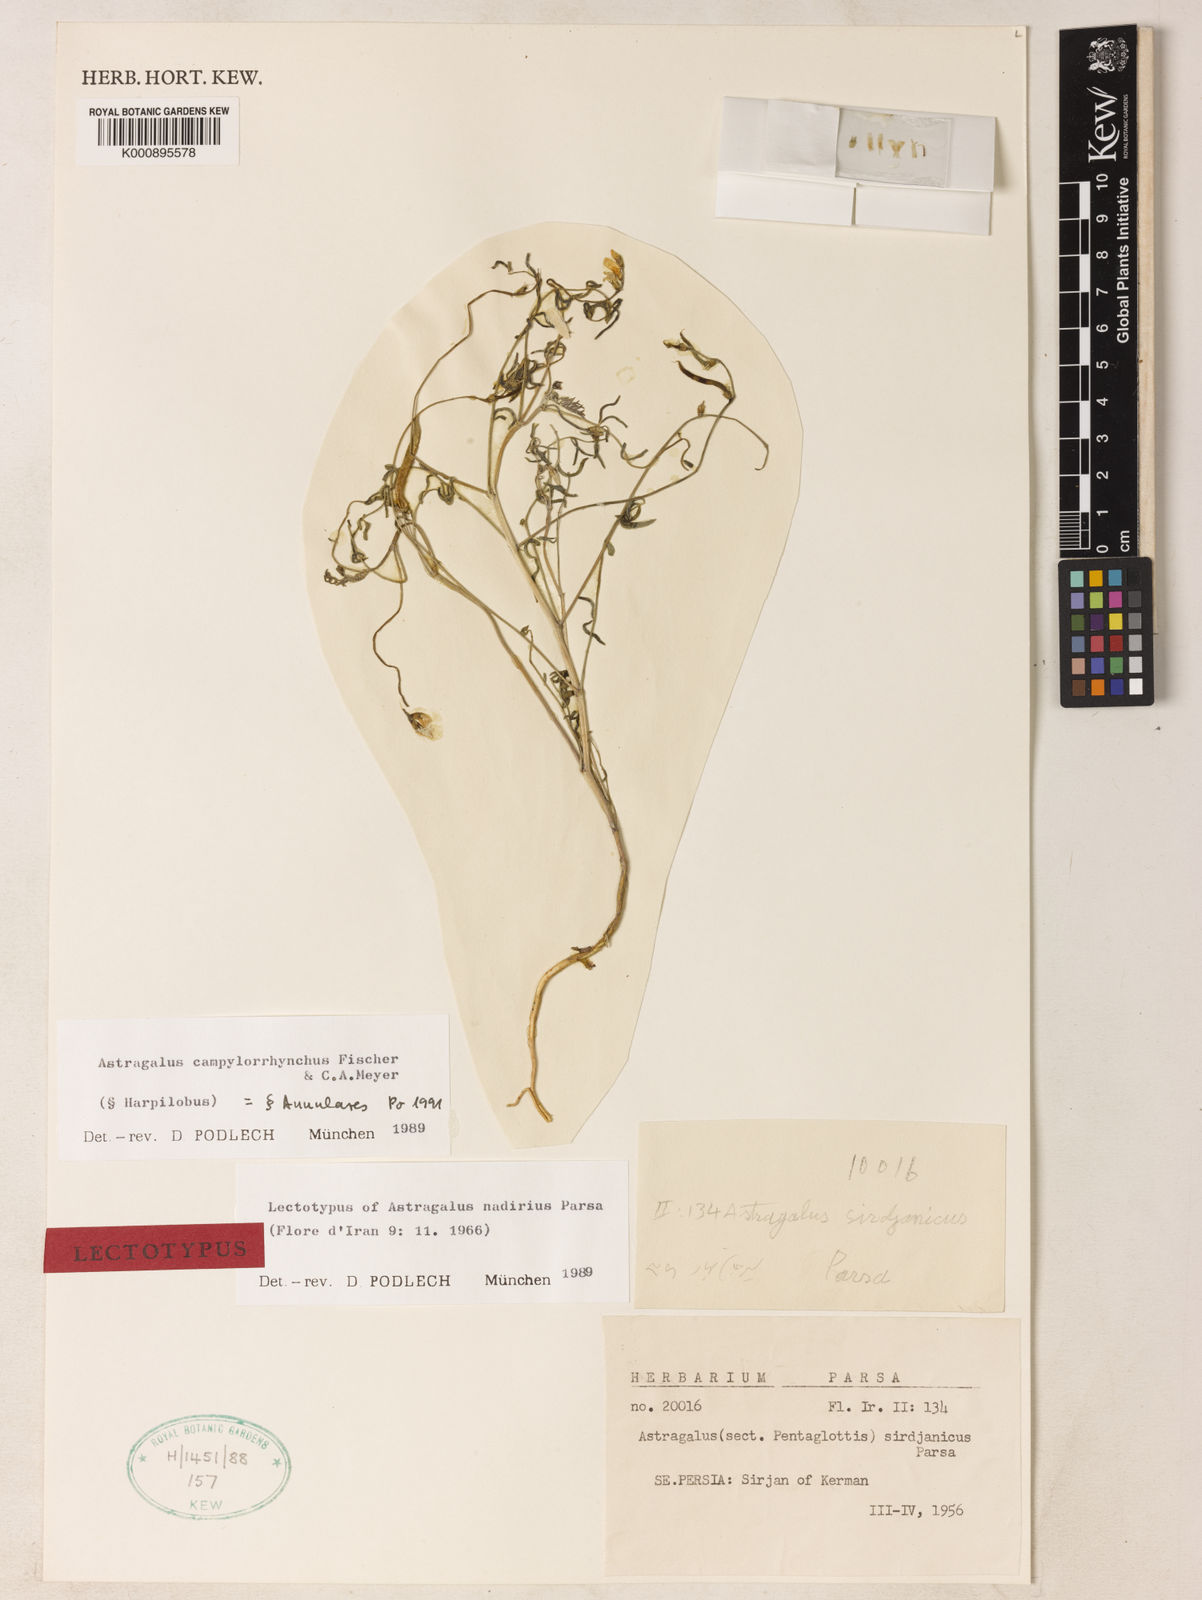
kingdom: Plantae
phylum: Tracheophyta
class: Magnoliopsida
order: Fabales
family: Fabaceae
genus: Astragalus
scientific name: Astragalus
